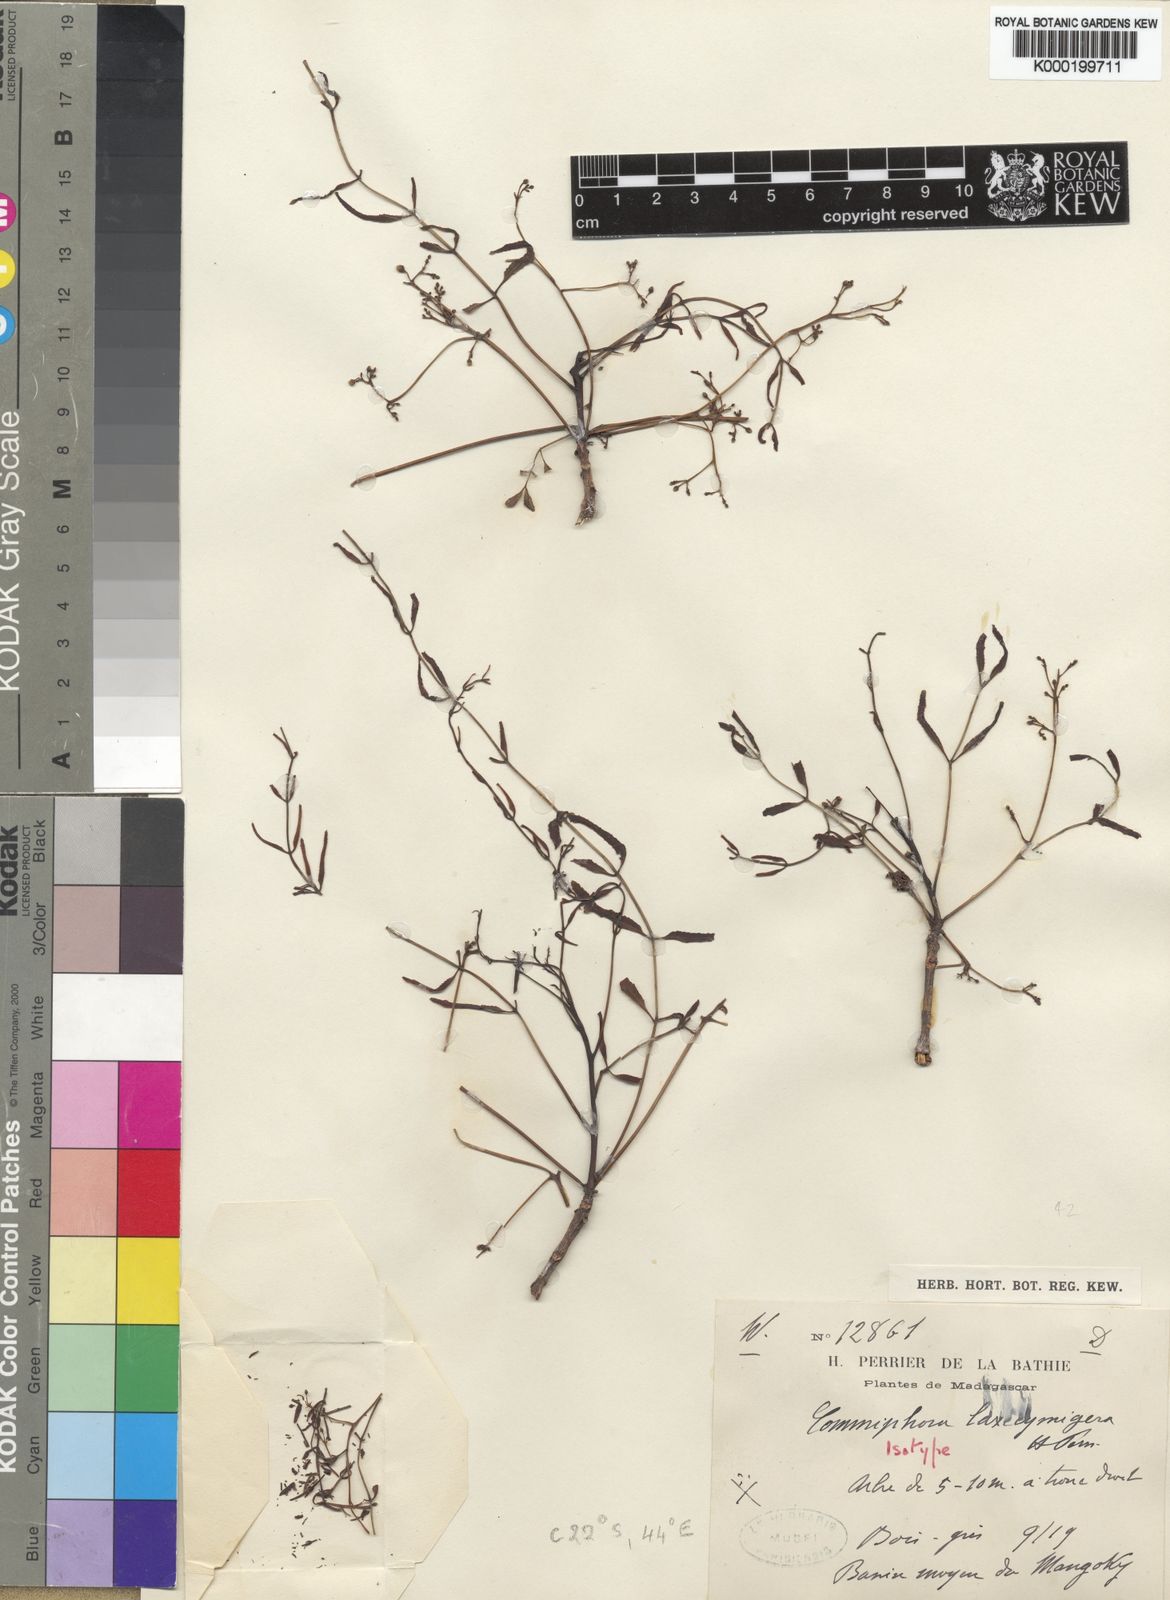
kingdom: Plantae
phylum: Tracheophyta
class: Magnoliopsida
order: Sapindales
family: Burseraceae
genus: Commiphora
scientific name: Commiphora laxecymigera
